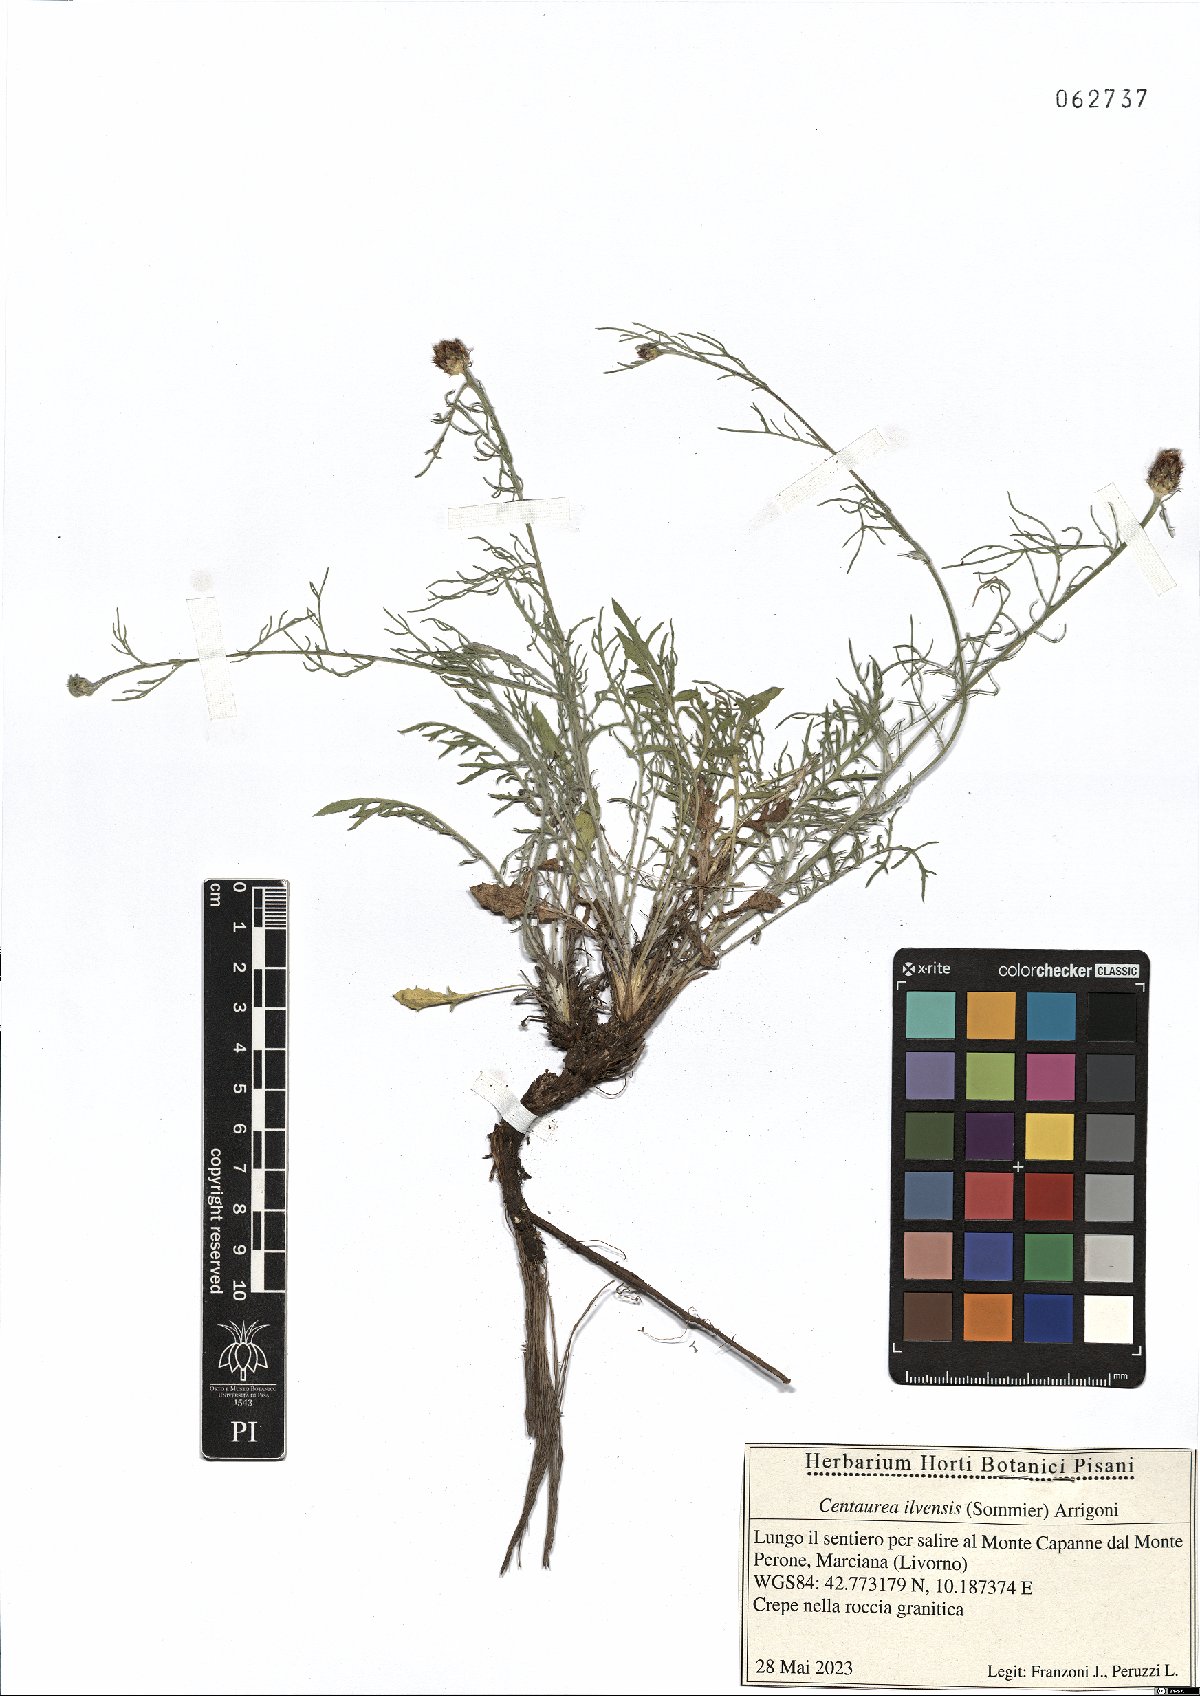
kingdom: Plantae
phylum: Tracheophyta
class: Magnoliopsida
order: Asterales
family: Asteraceae
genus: Centaurea
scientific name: Centaurea ilvensis
